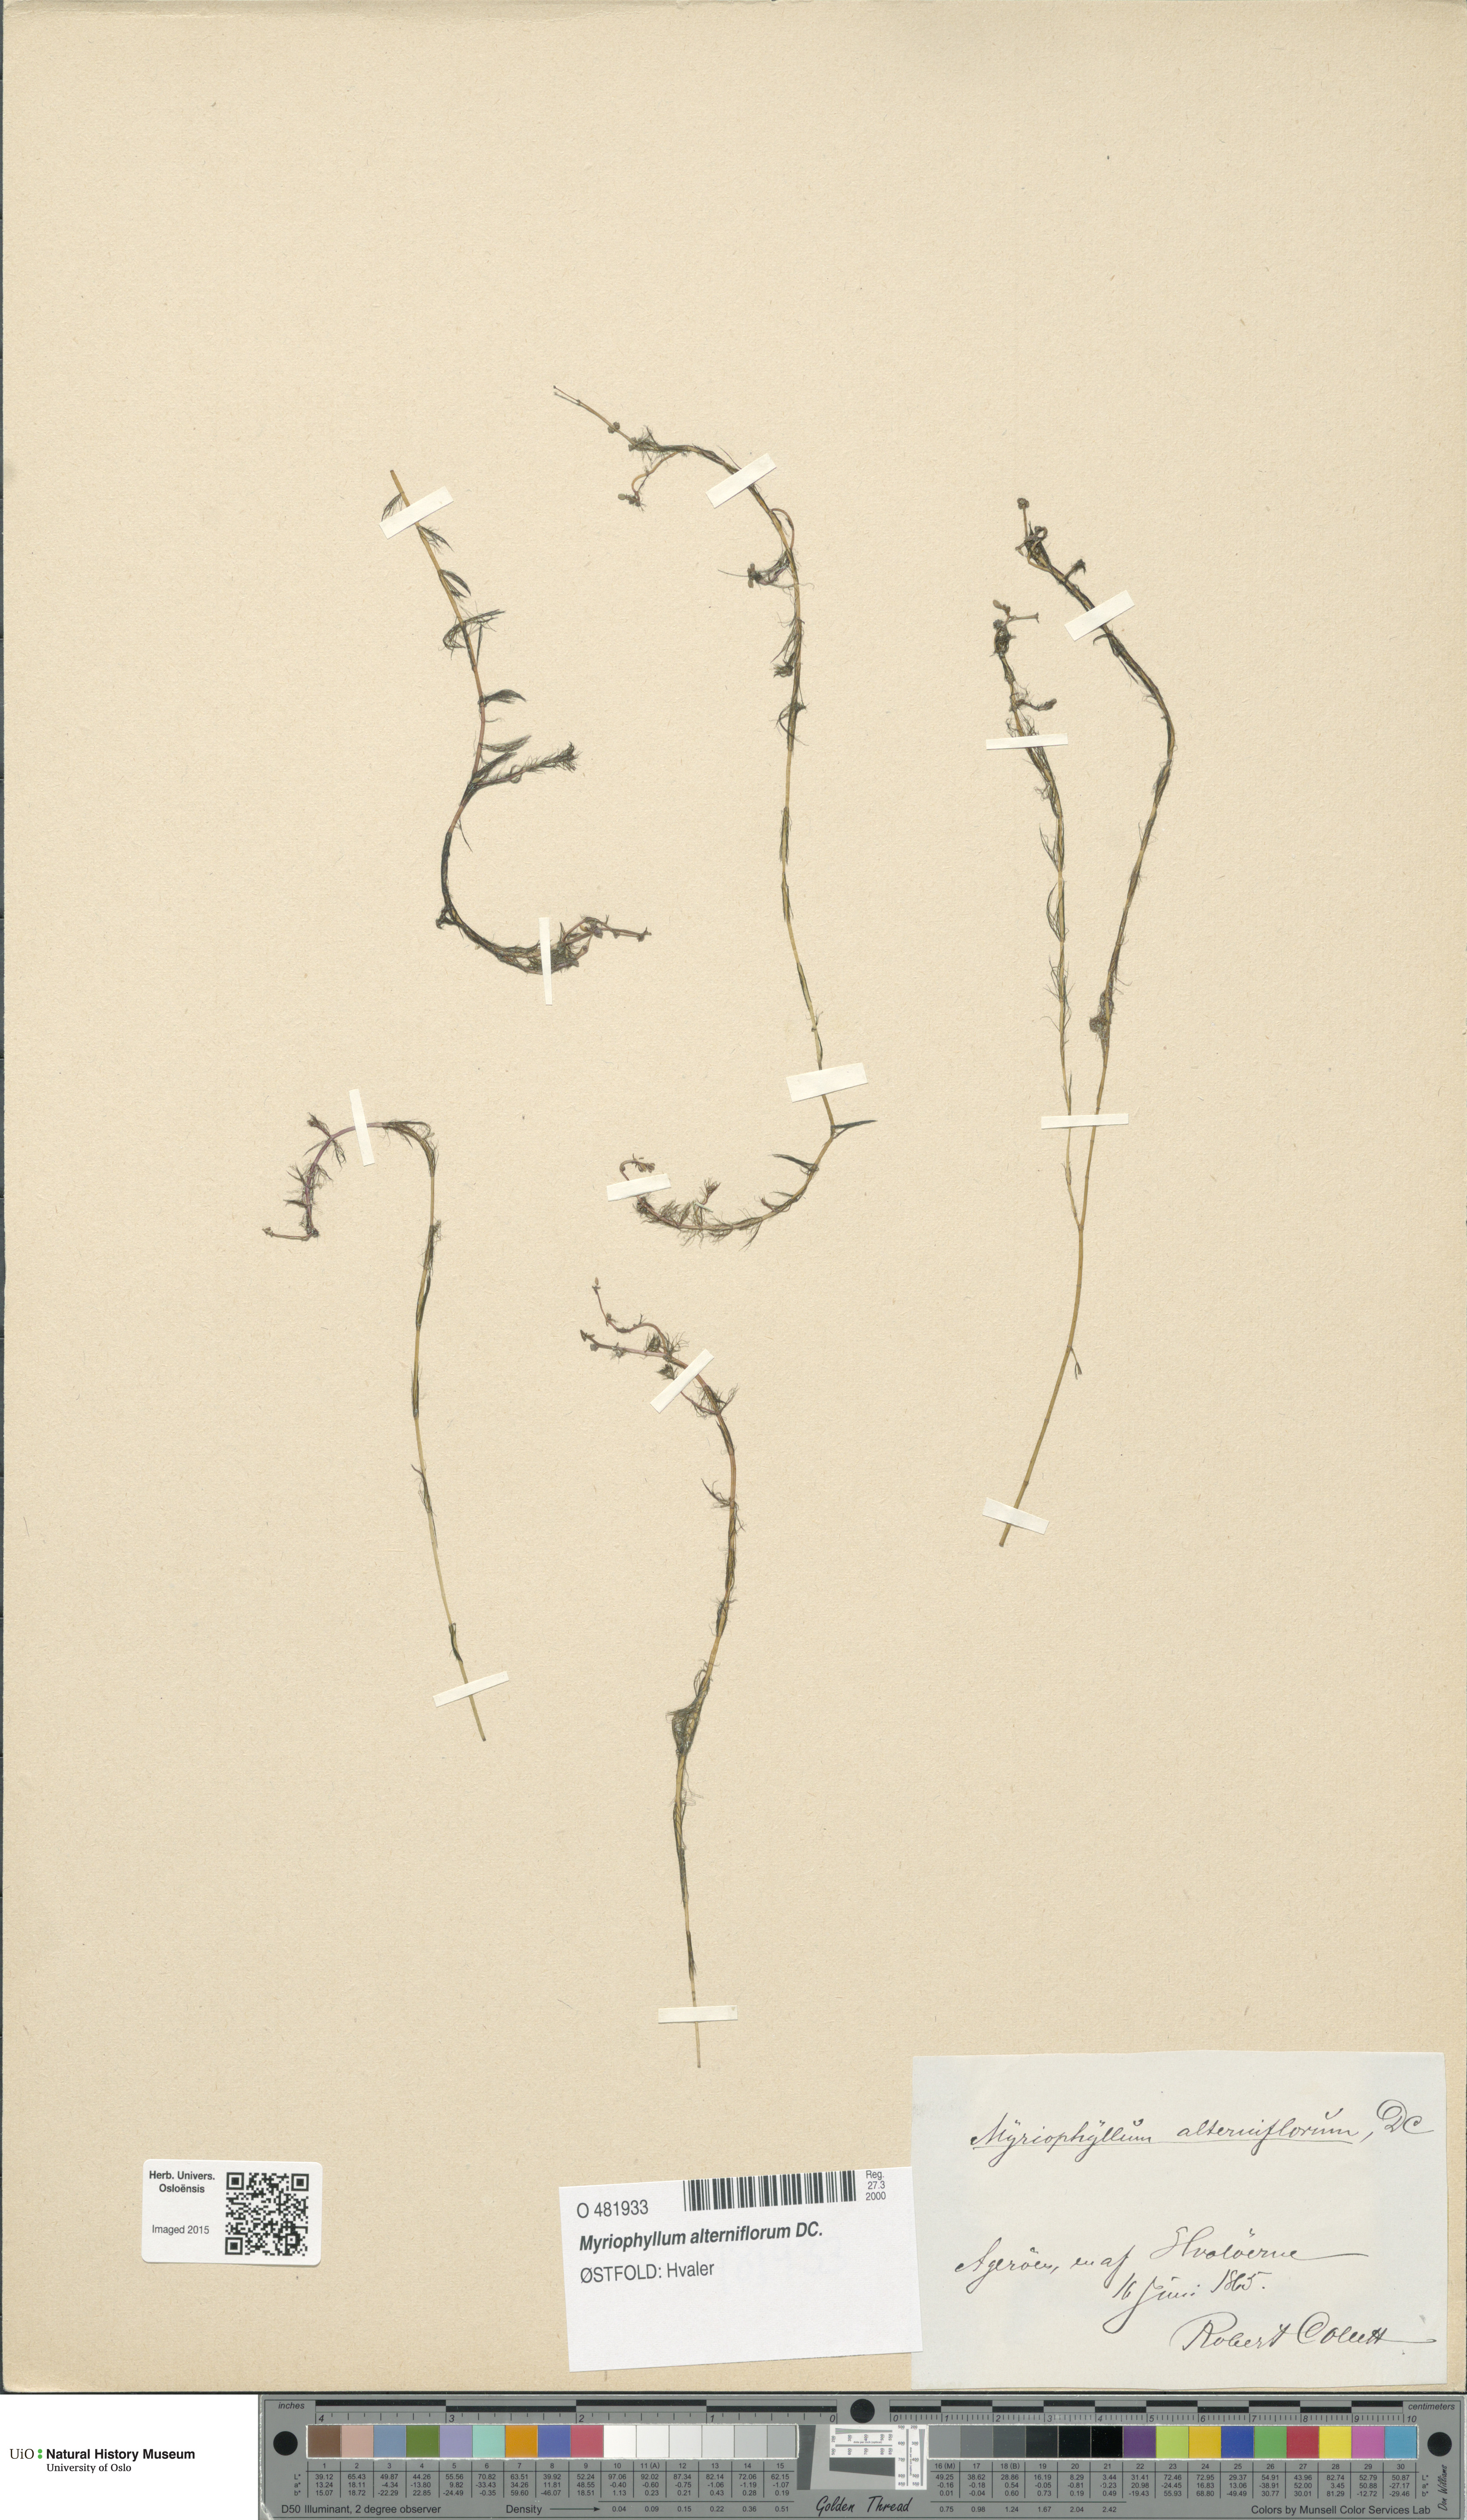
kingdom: Plantae
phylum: Tracheophyta
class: Magnoliopsida
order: Saxifragales
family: Haloragaceae
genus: Myriophyllum
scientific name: Myriophyllum alterniflorum
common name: Alternate water-milfoil
